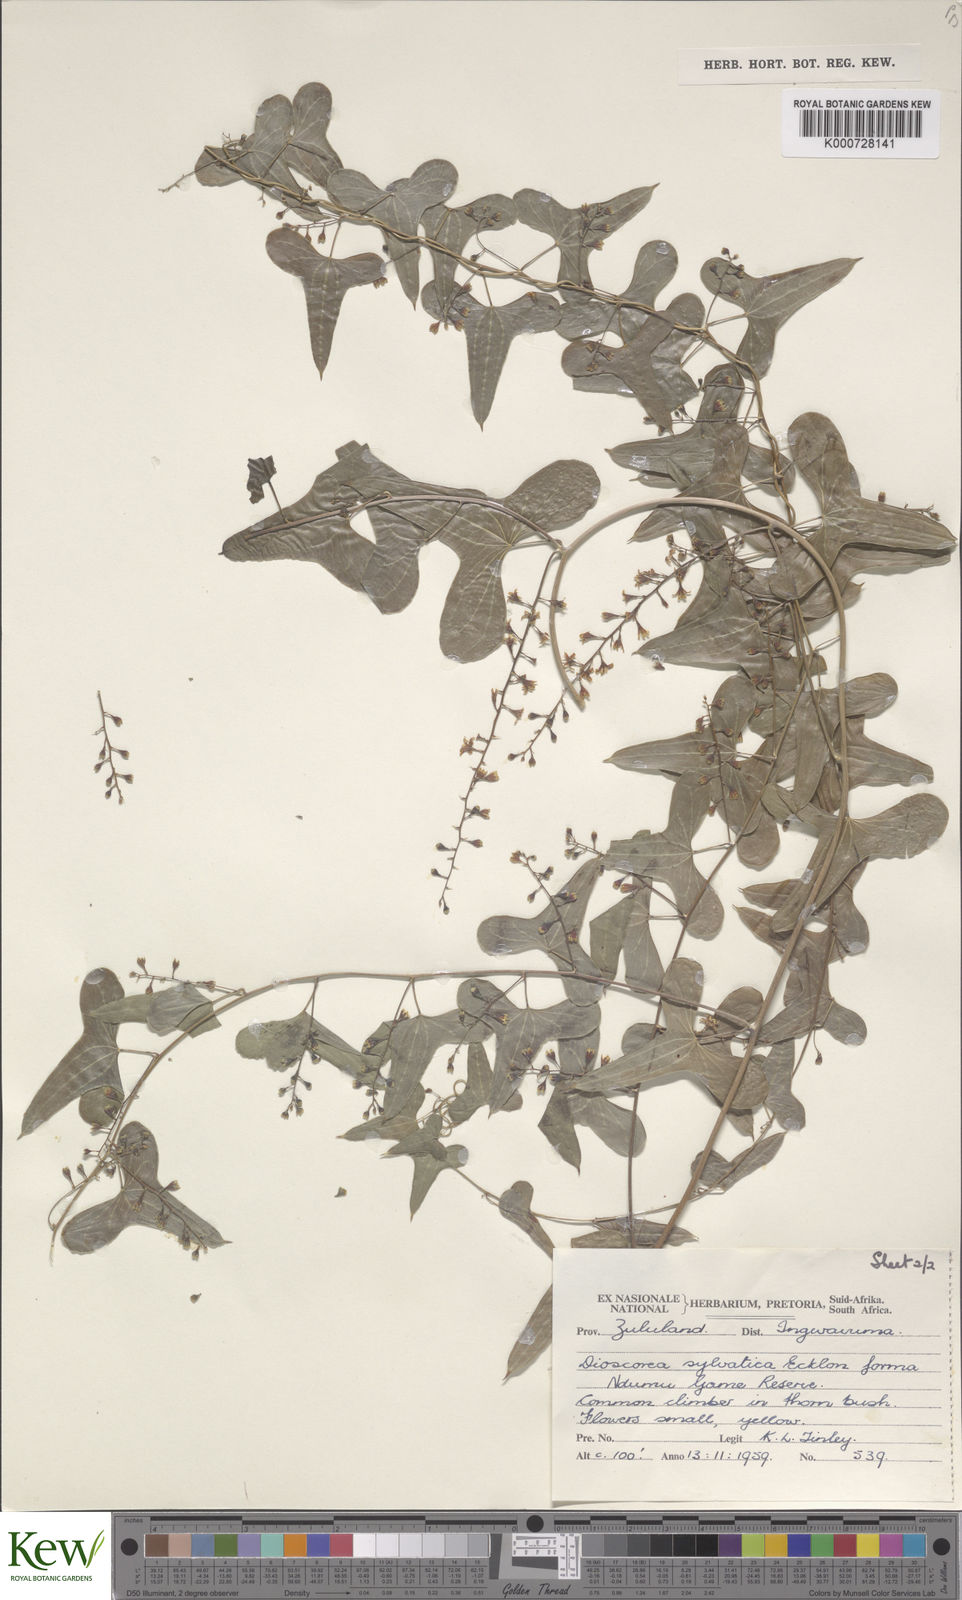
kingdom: Plantae
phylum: Tracheophyta
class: Liliopsida
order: Dioscoreales
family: Dioscoreaceae
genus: Dioscorea
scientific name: Dioscorea sylvatica
